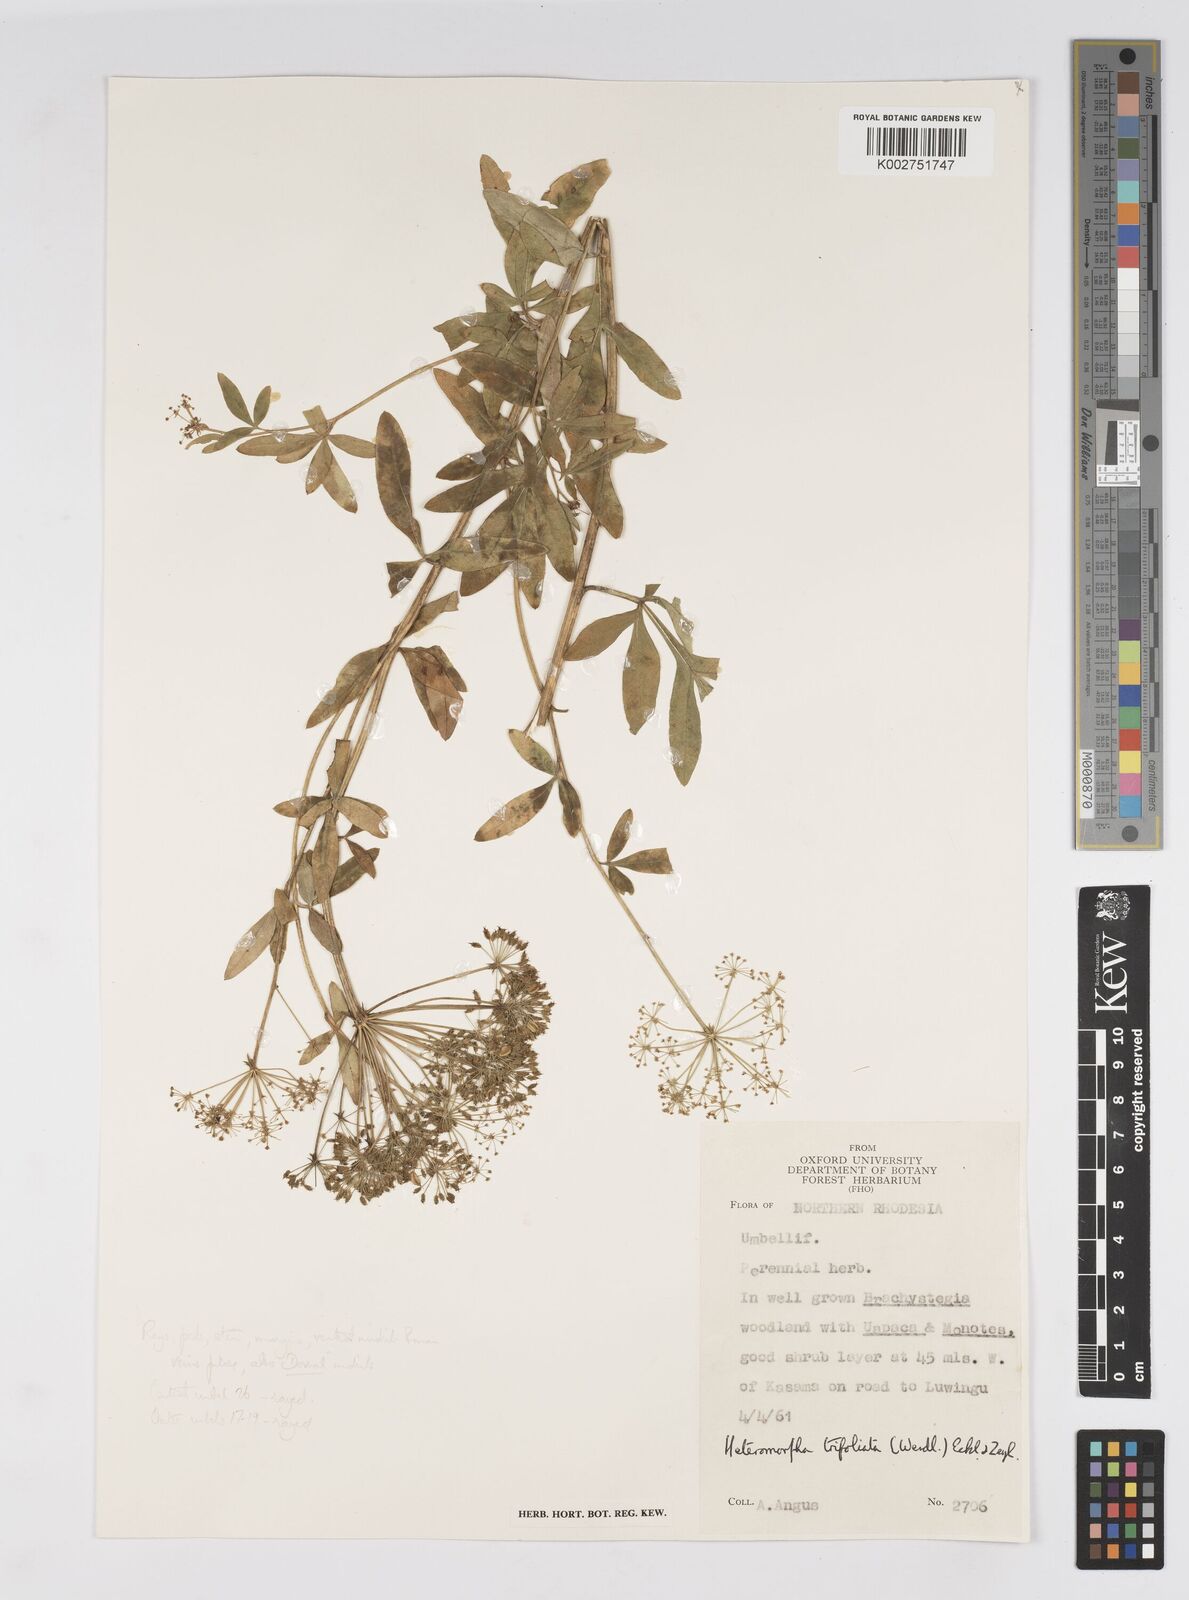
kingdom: Plantae
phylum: Tracheophyta
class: Magnoliopsida
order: Apiales
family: Apiaceae
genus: Heteromorpha
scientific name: Heteromorpha involucrata
